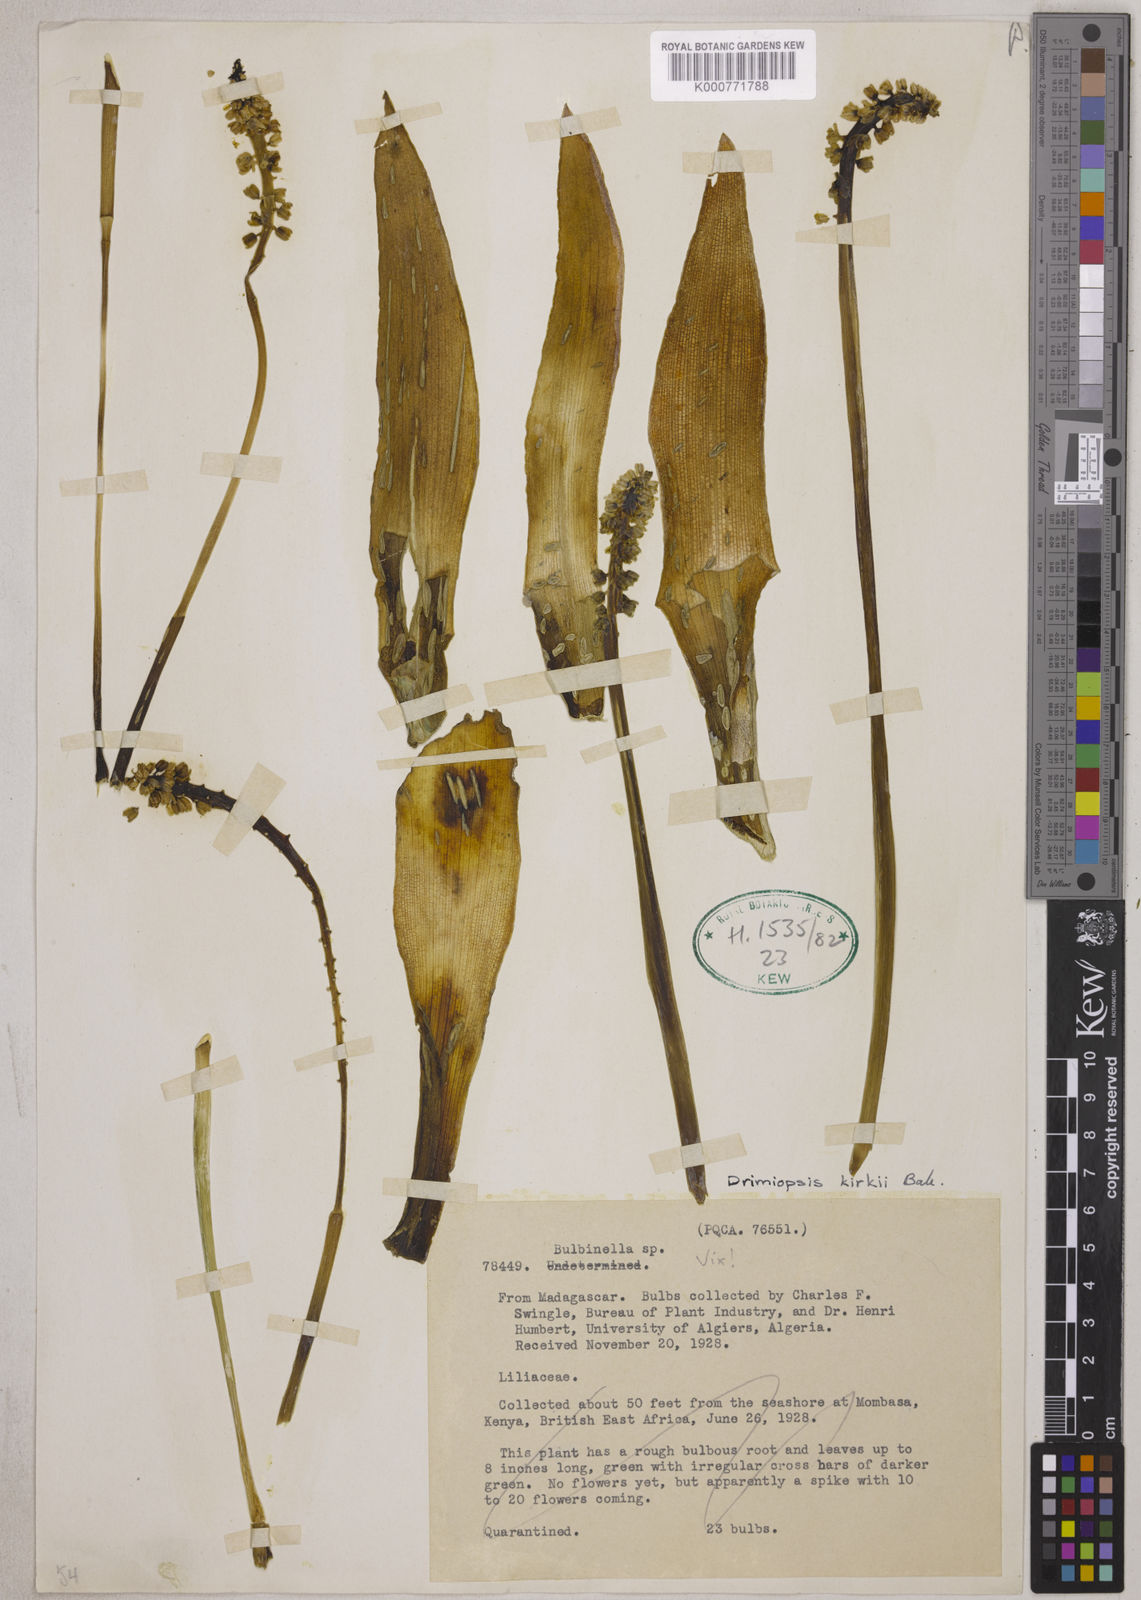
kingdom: Plantae
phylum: Tracheophyta
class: Liliopsida
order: Asparagales
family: Asparagaceae
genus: Drimiopsis
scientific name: Drimiopsis botryoides
